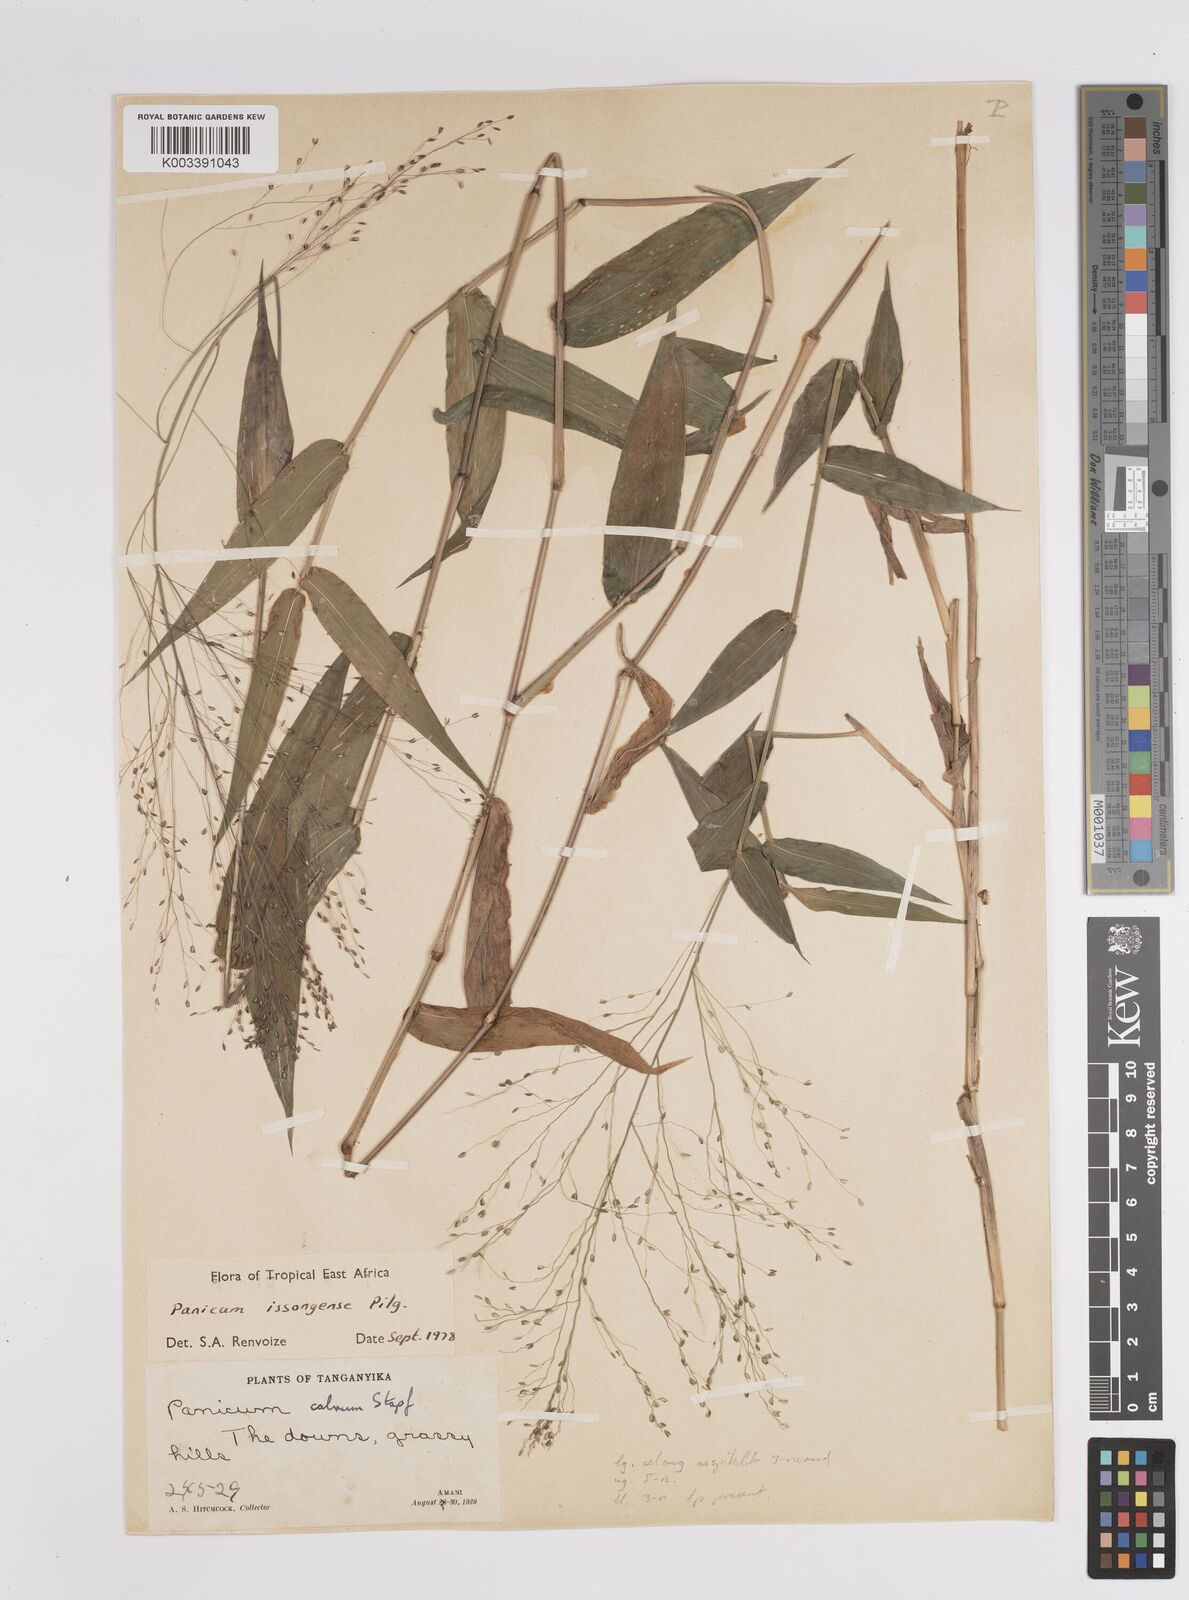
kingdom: Plantae
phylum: Tracheophyta
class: Liliopsida
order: Poales
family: Poaceae
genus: Panicum
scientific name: Panicum issongense
